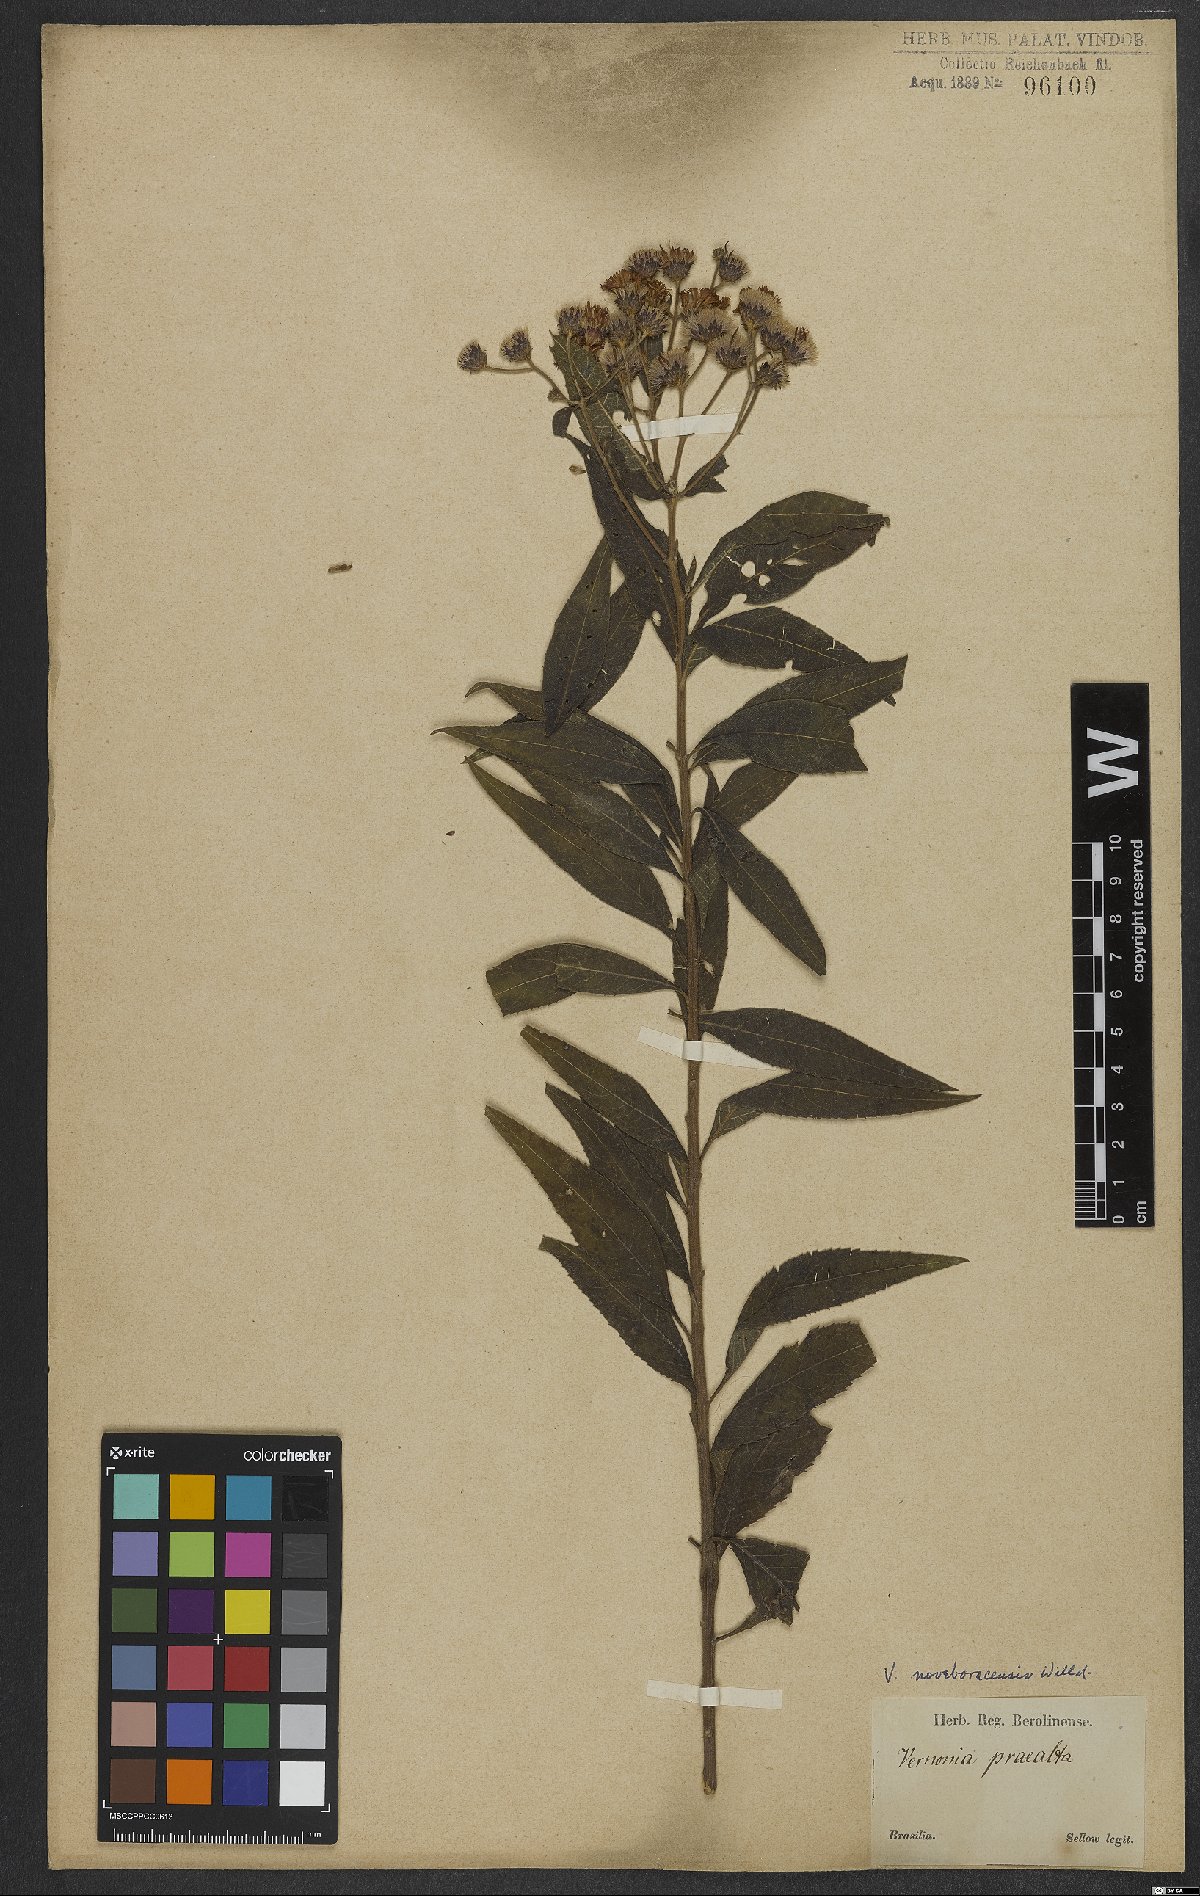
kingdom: Plantae
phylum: Tracheophyta
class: Magnoliopsida
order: Asterales
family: Asteraceae
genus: Vernonia
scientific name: Vernonia noveboracensis
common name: New york ironweed
